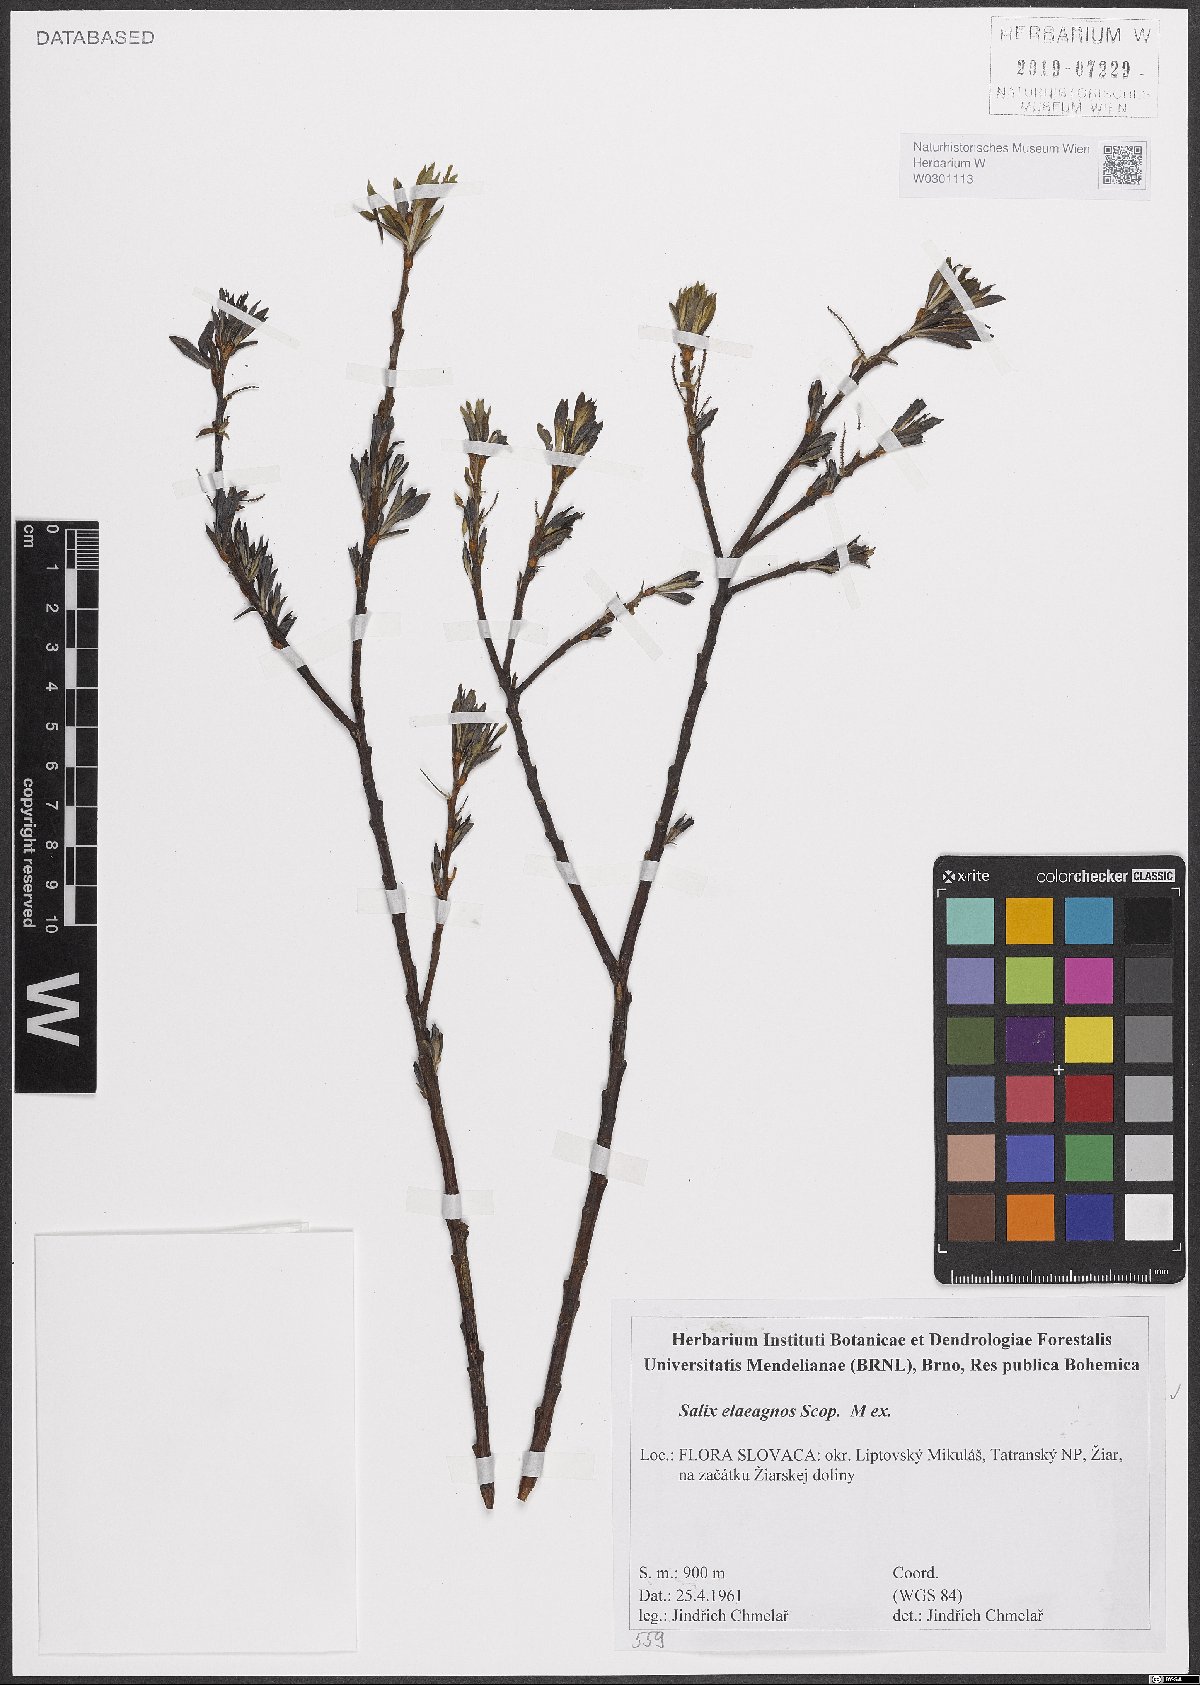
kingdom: Plantae
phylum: Tracheophyta
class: Magnoliopsida
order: Malpighiales
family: Salicaceae
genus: Salix
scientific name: Salix eleagnos
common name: Elaeagnus willow
